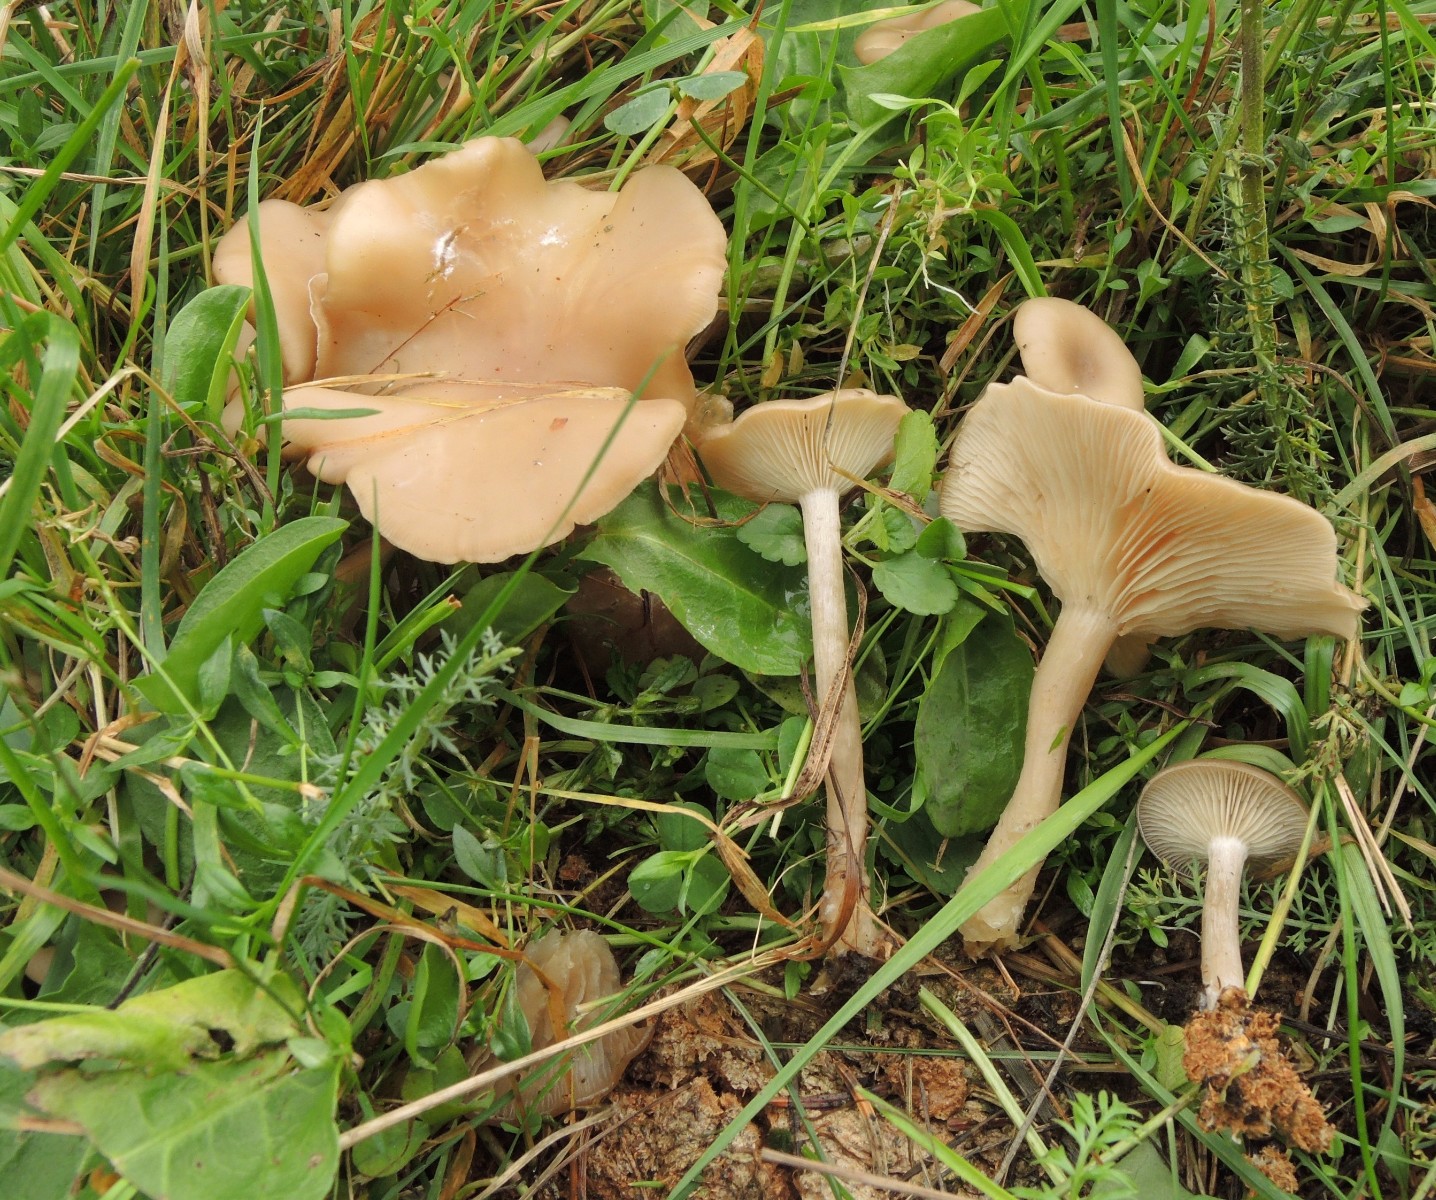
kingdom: Fungi
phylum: Basidiomycota
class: Agaricomycetes
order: Agaricales
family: Tricholomataceae
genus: Clitocybe
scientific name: Clitocybe amarescens
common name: gødnings-tragthat
